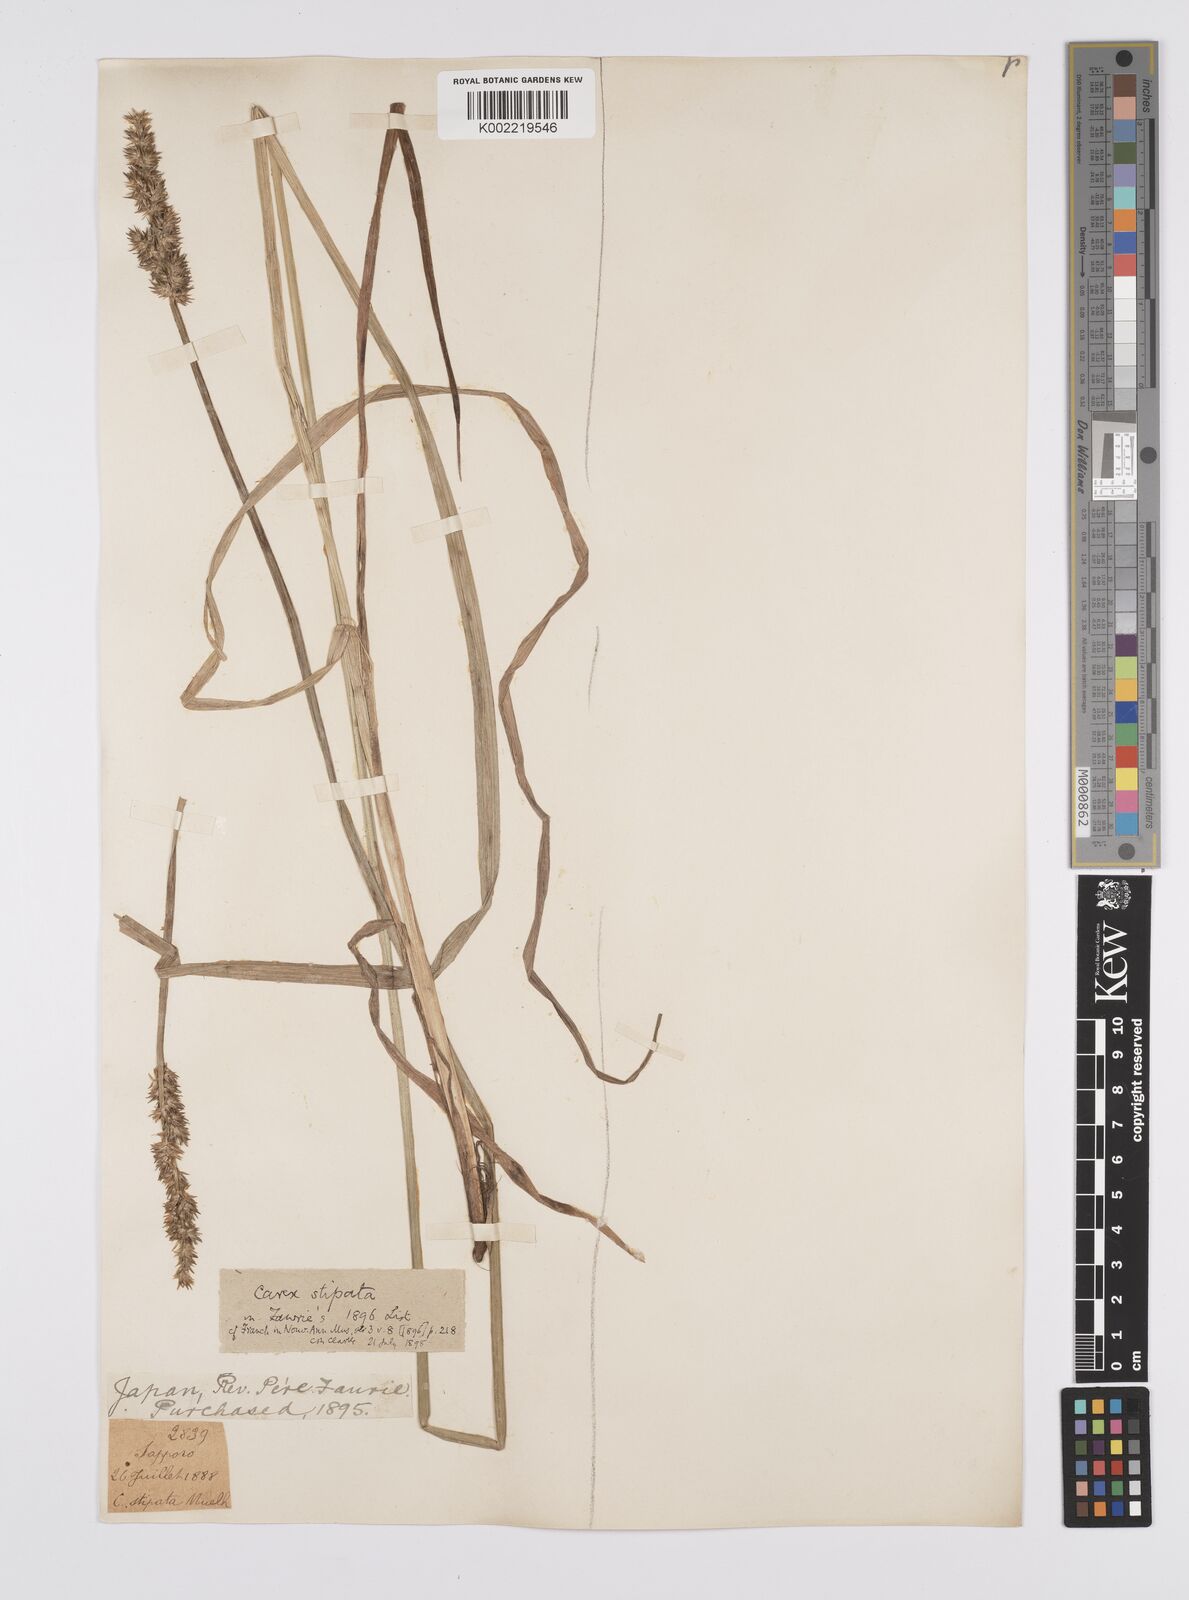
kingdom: Plantae
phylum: Tracheophyta
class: Liliopsida
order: Poales
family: Cyperaceae
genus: Carex
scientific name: Carex stipata
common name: Awl-fruited sedge
